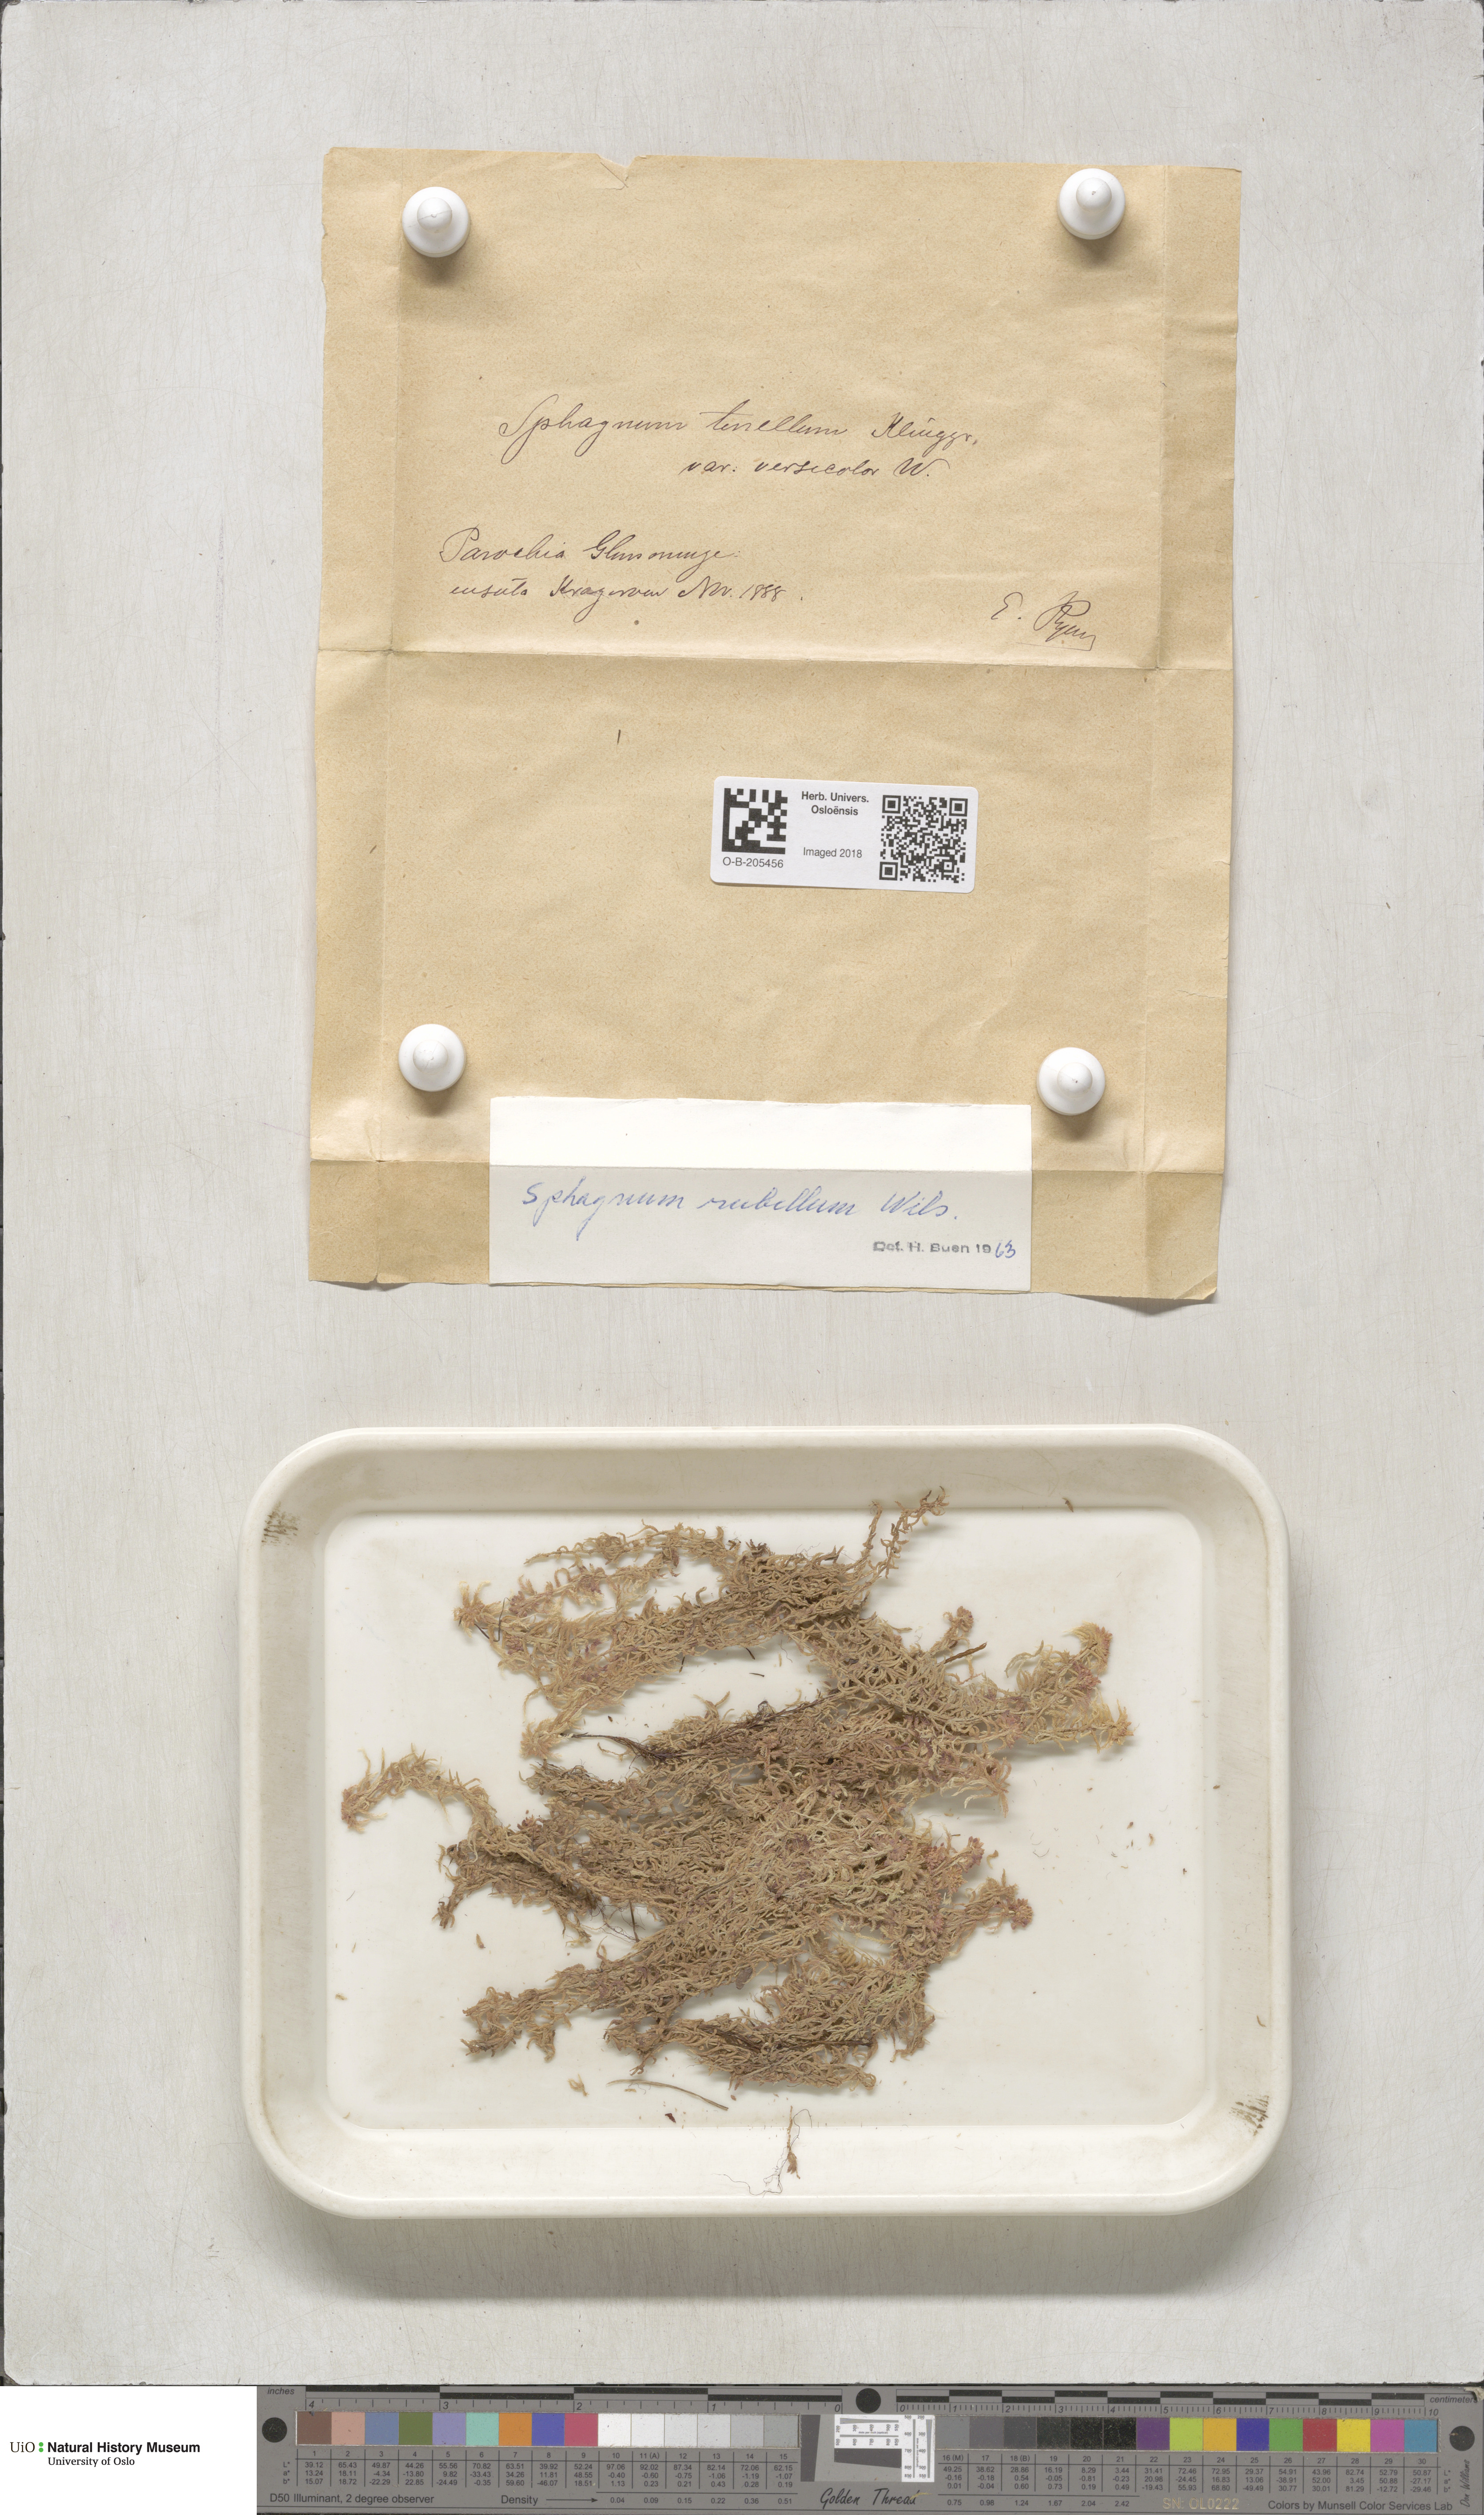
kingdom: Plantae
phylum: Bryophyta
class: Sphagnopsida
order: Sphagnales
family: Sphagnaceae
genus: Sphagnum
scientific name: Sphagnum rubellum
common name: Red peat moss
